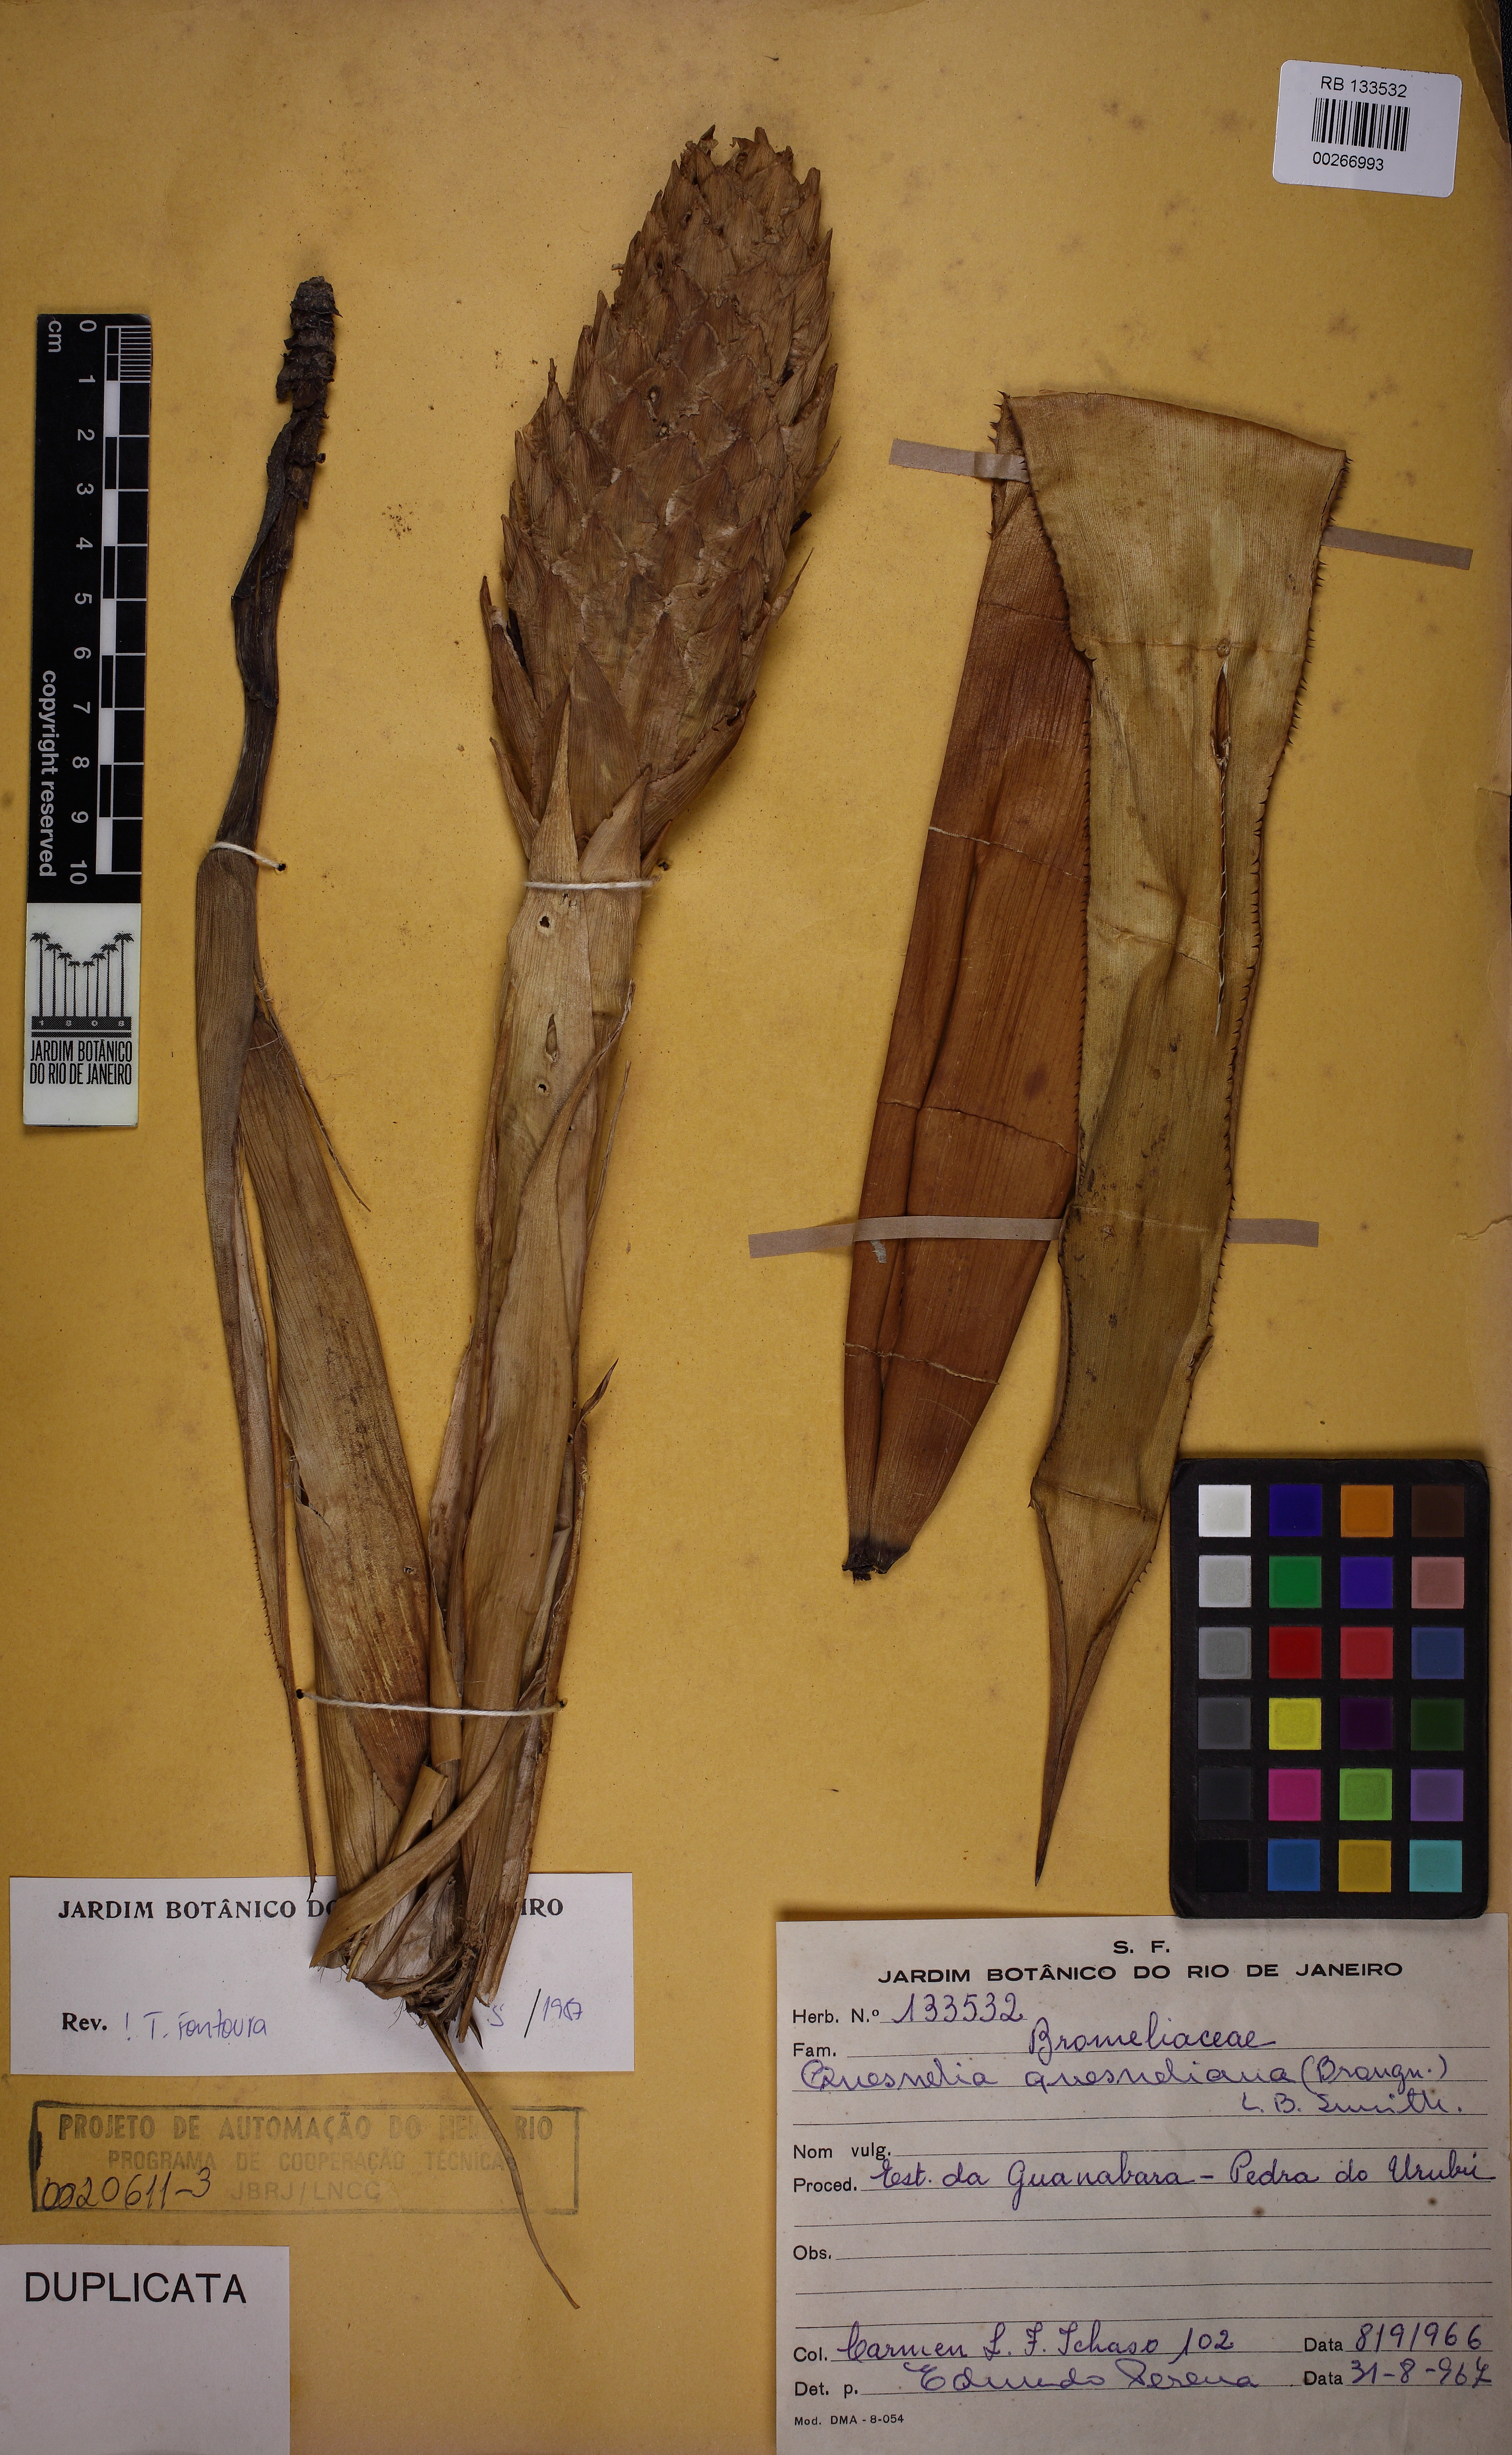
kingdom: Plantae
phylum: Tracheophyta
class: Liliopsida
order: Poales
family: Bromeliaceae
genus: Quesnelia
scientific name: Quesnelia quesneliana
